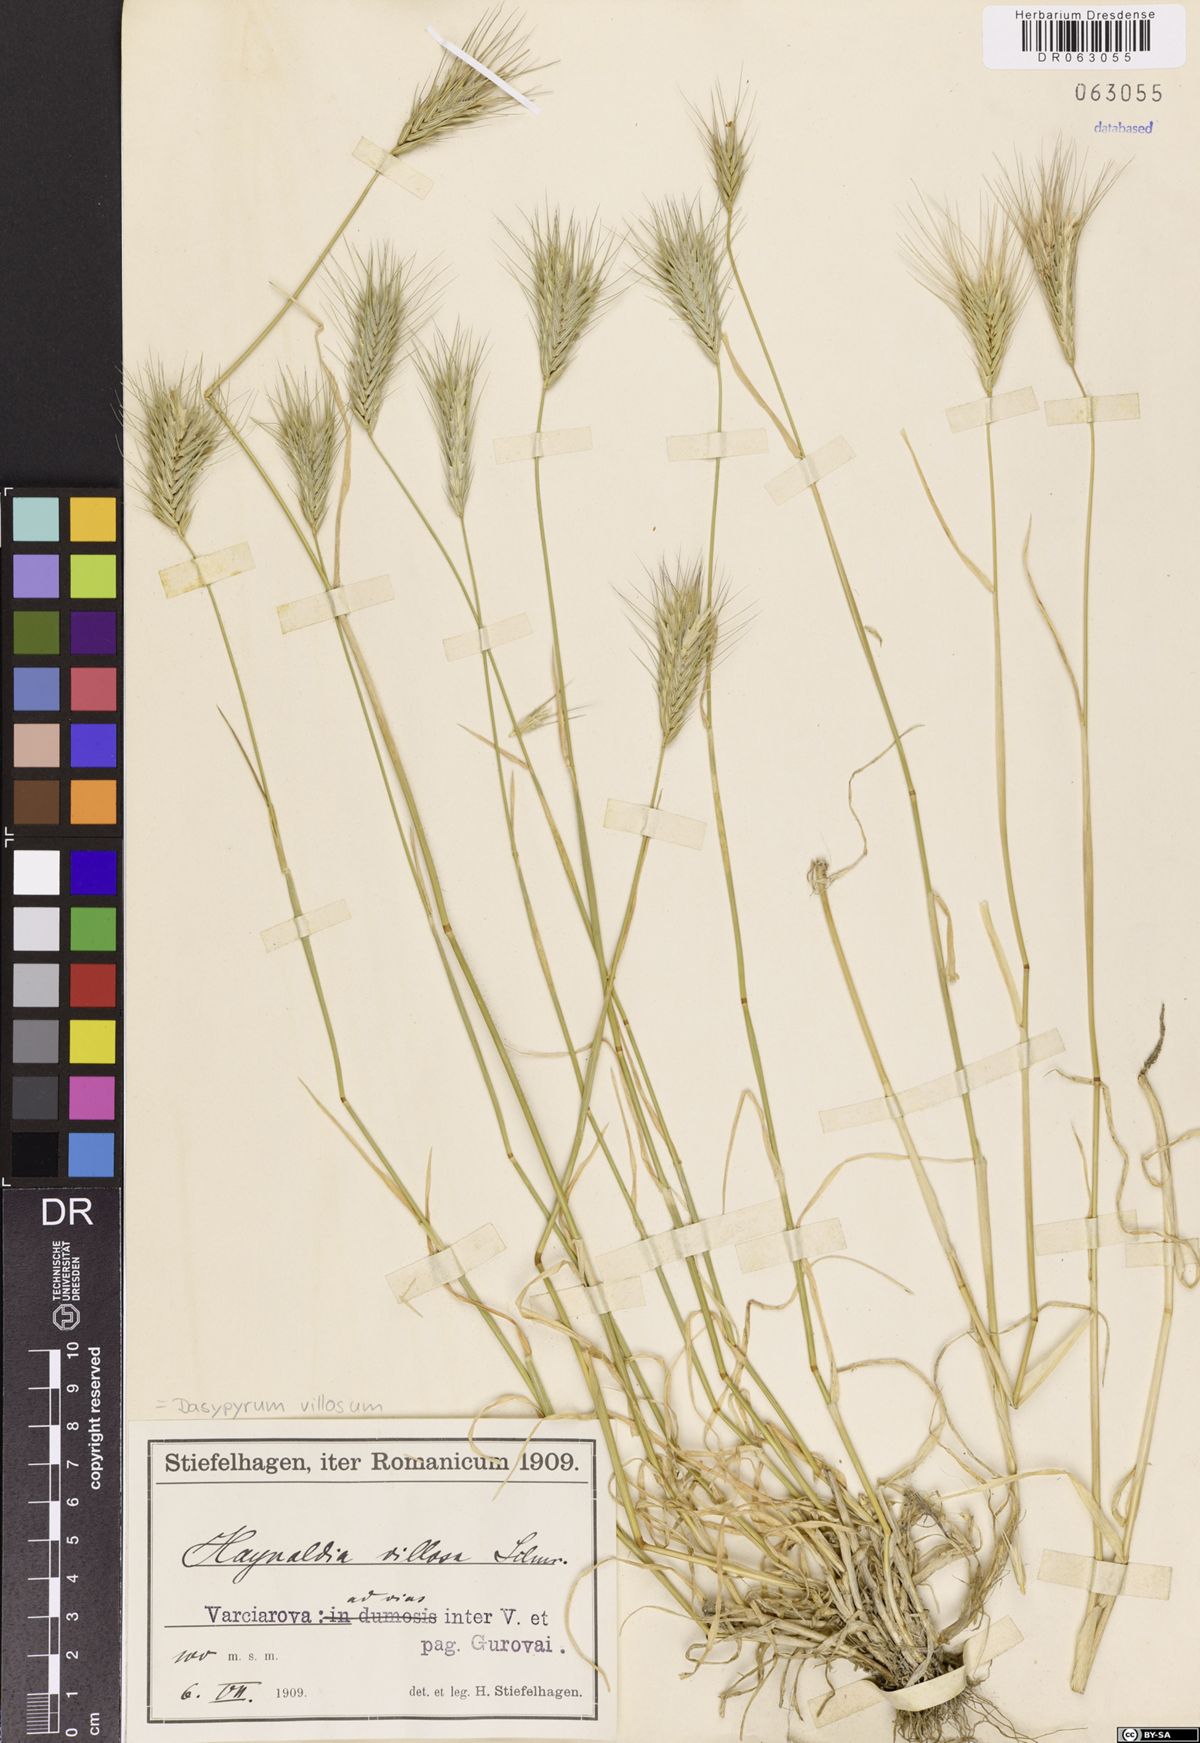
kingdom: Plantae
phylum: Tracheophyta
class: Liliopsida
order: Poales
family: Poaceae
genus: Dasypyrum
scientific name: Dasypyrum villosum
